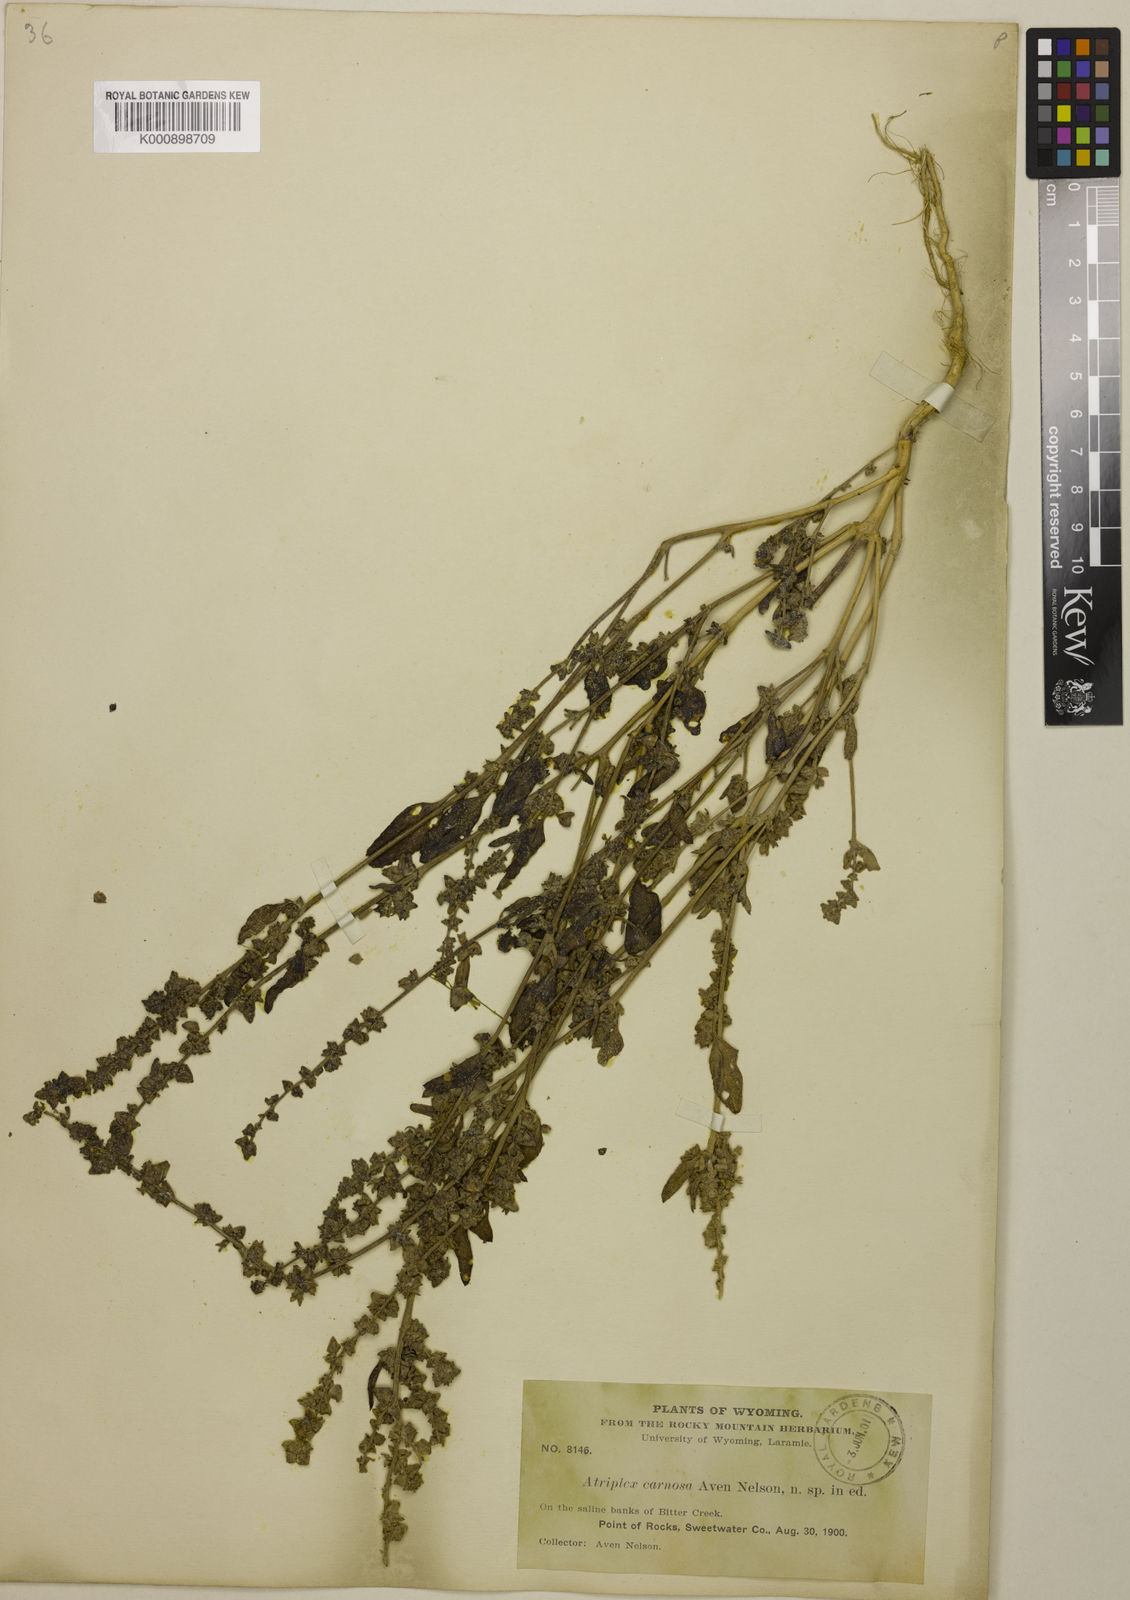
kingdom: Plantae
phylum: Tracheophyta
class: Magnoliopsida
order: Caryophyllales
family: Amaranthaceae
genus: Atriplex
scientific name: Atriplex carnosa
